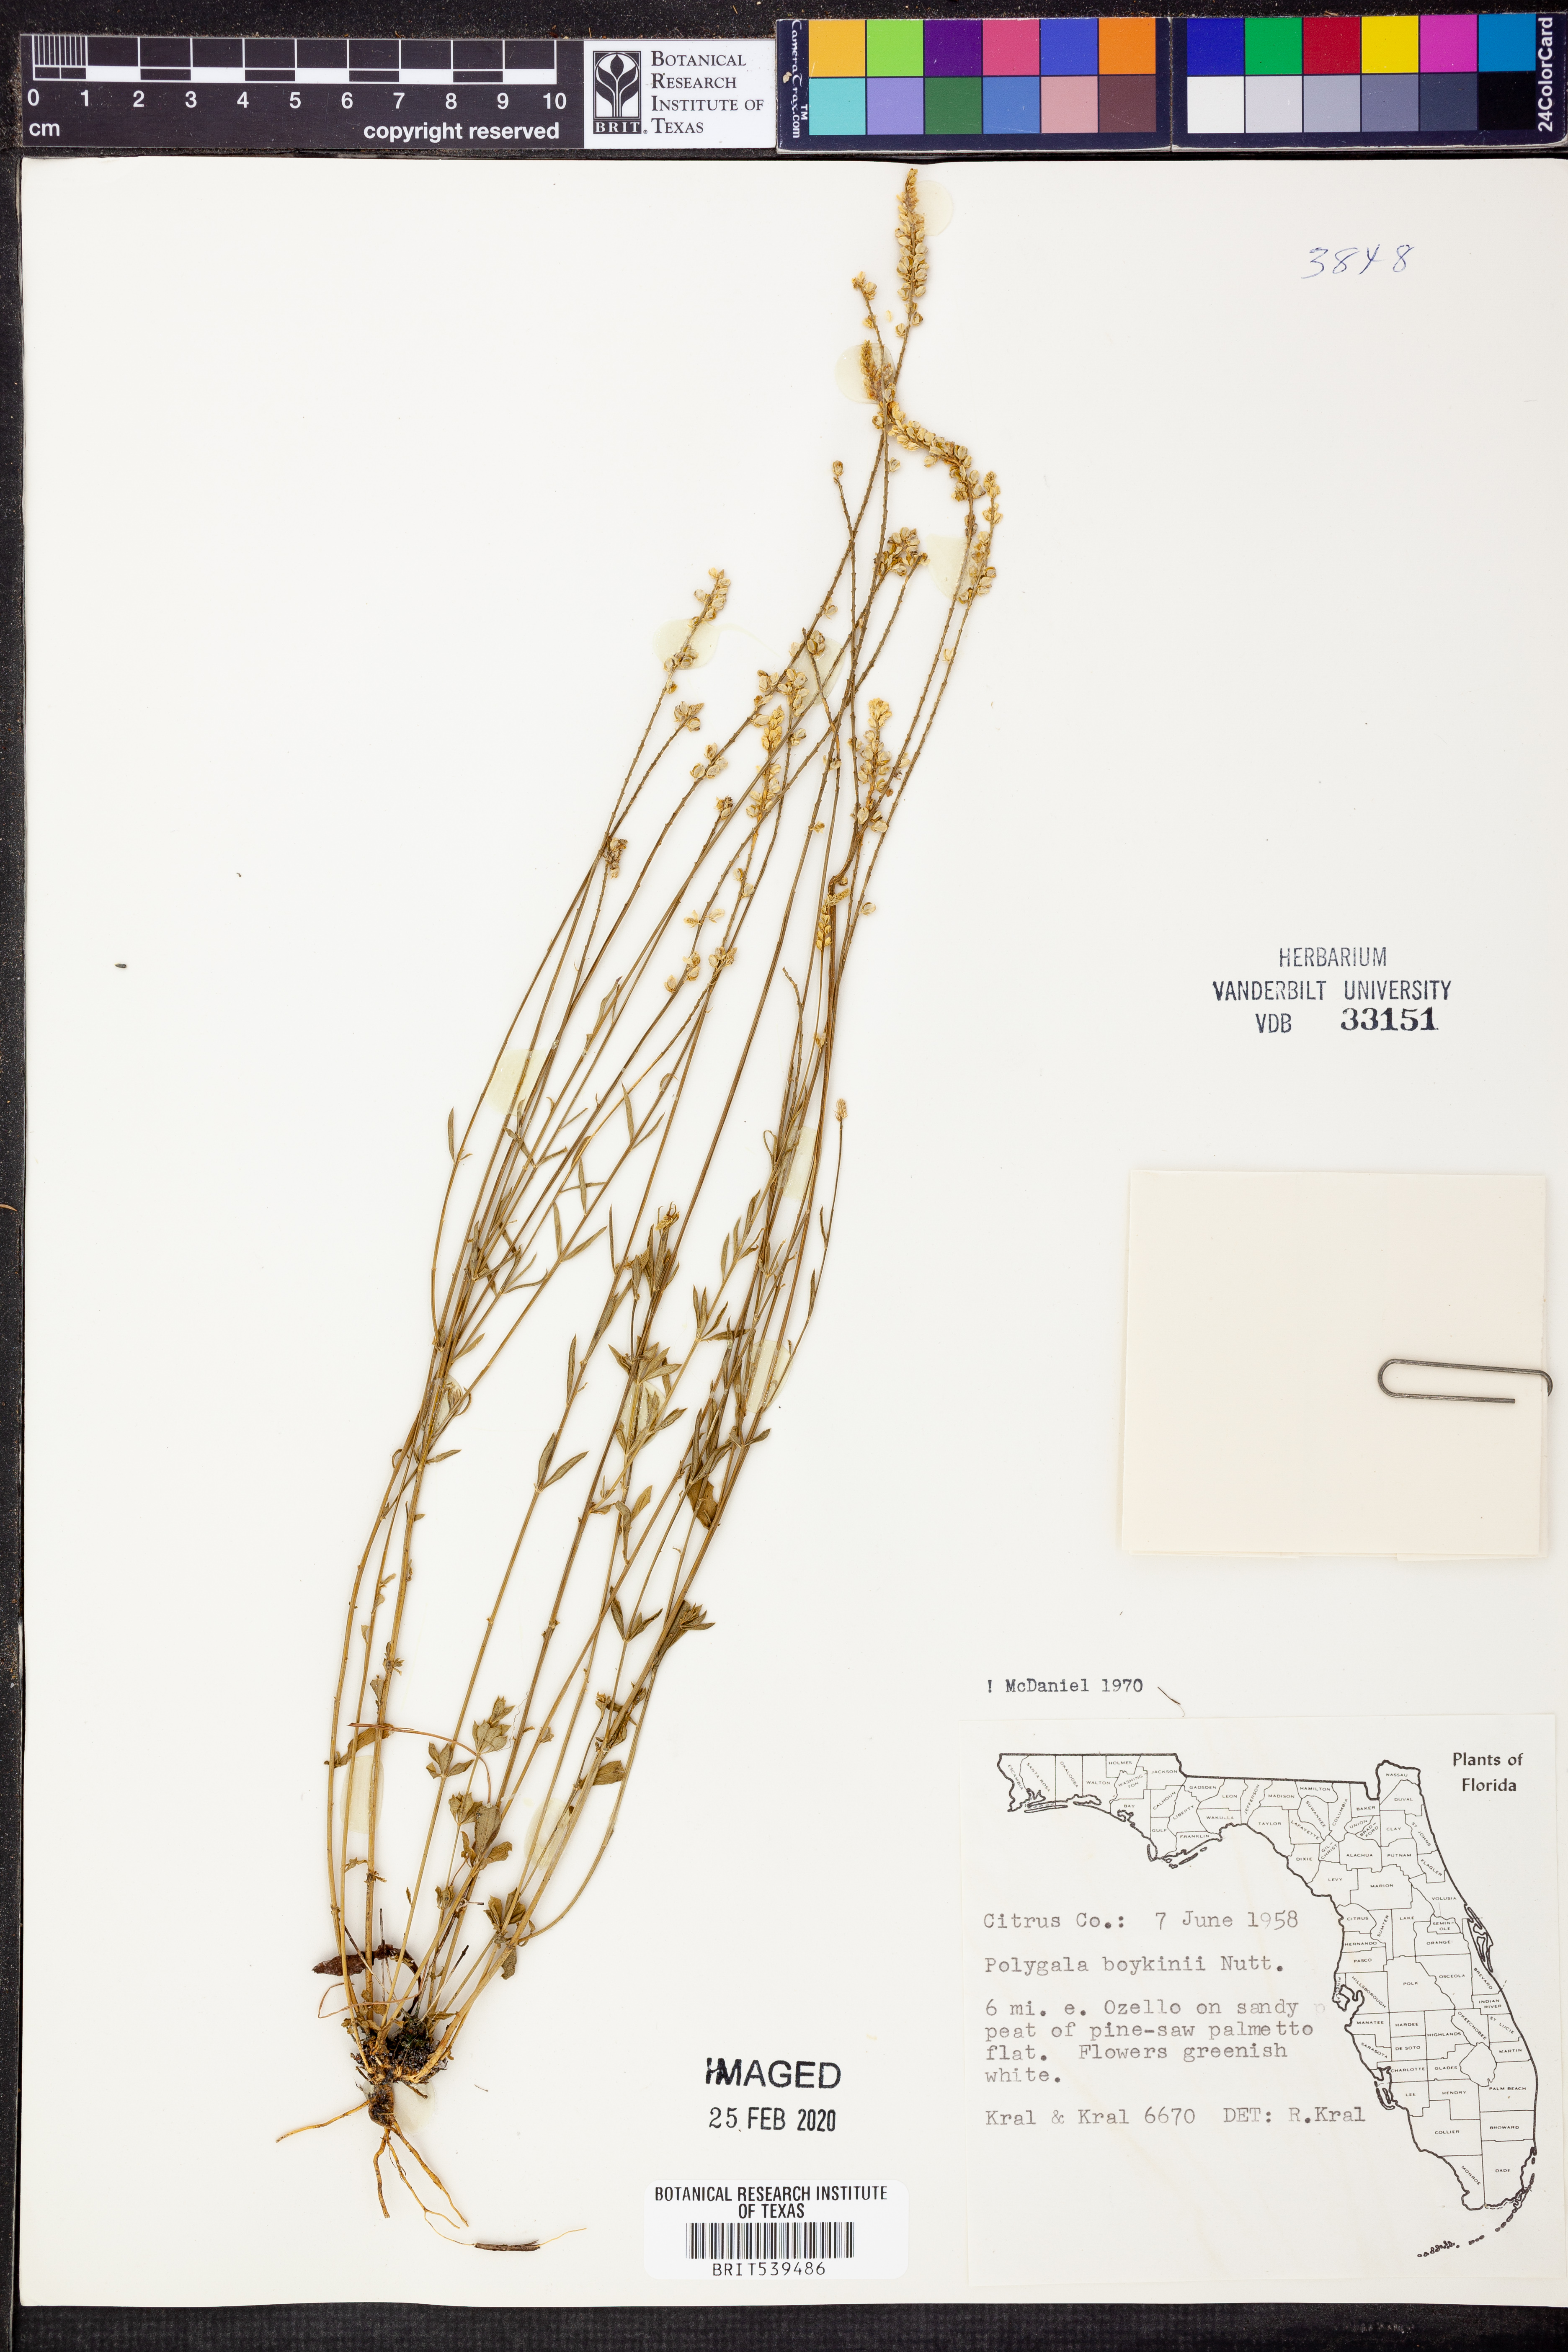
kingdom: Plantae
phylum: Tracheophyta
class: Magnoliopsida
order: Fabales
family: Polygalaceae
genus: Polygala
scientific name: Polygala boykinii
